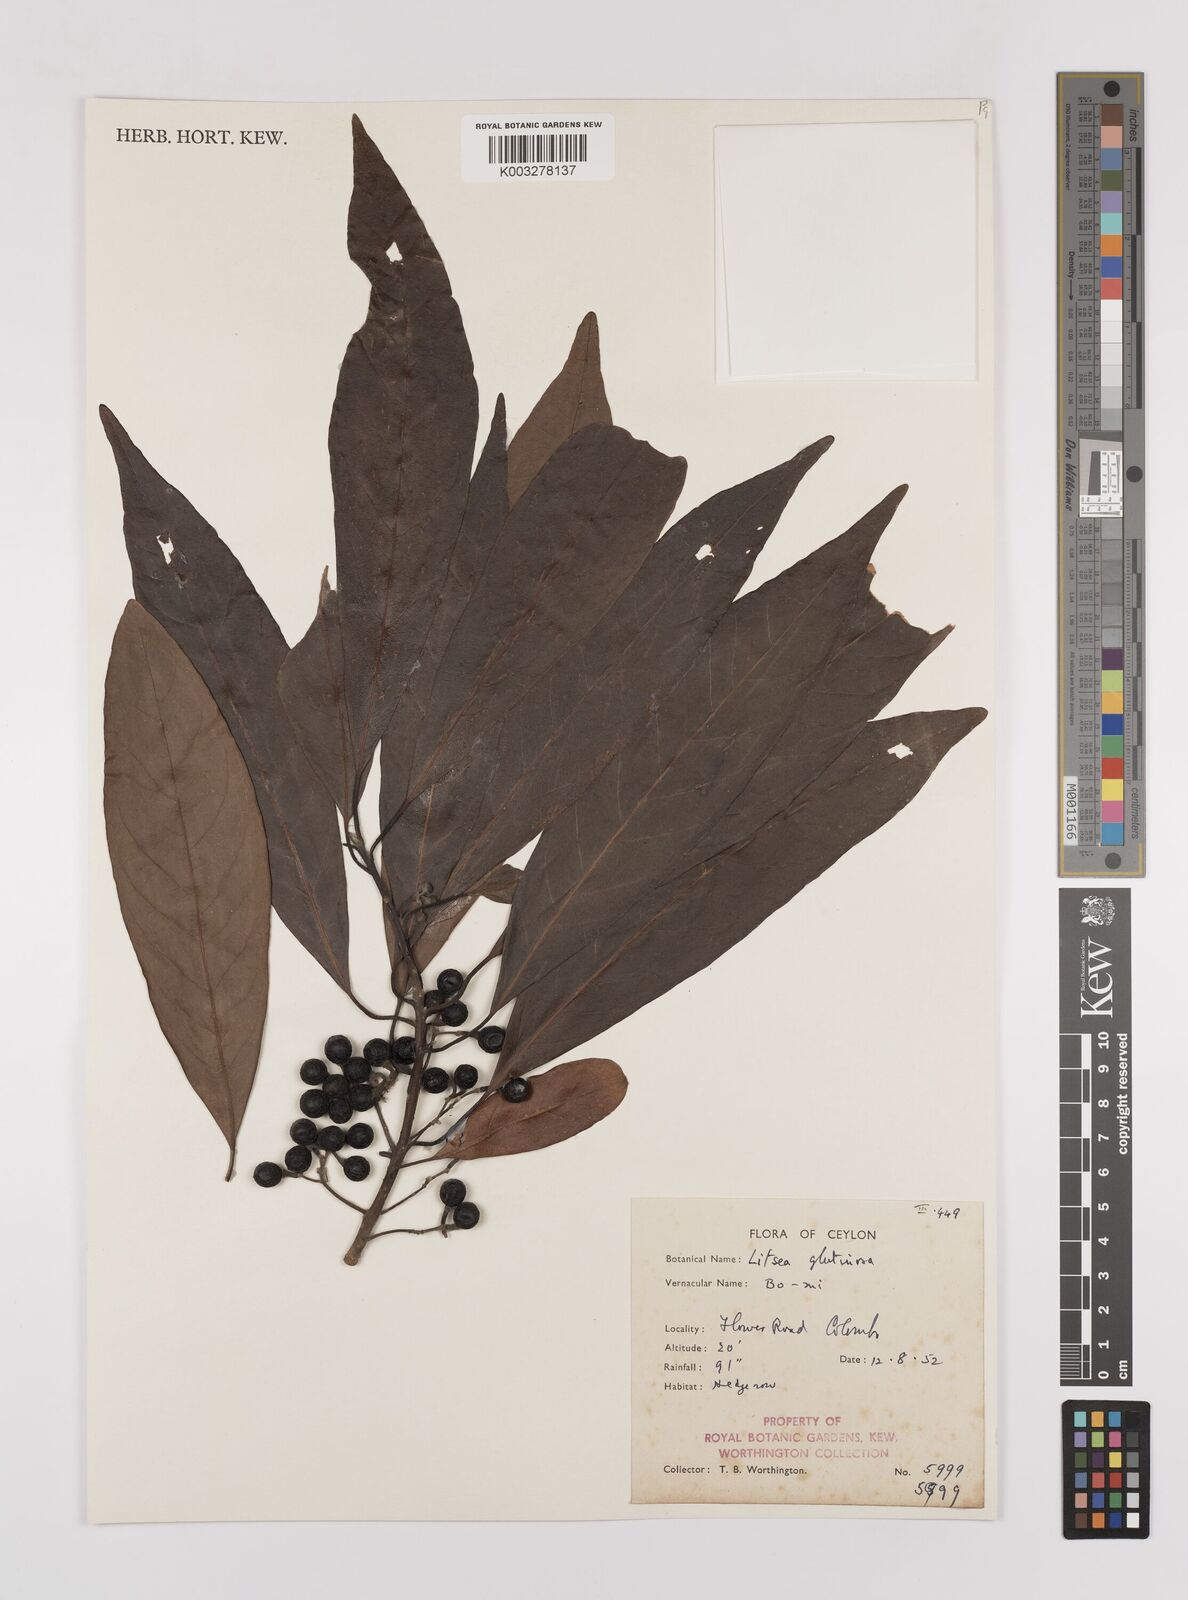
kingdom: Plantae
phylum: Tracheophyta
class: Magnoliopsida
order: Laurales
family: Lauraceae
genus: Litsea
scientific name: Litsea
